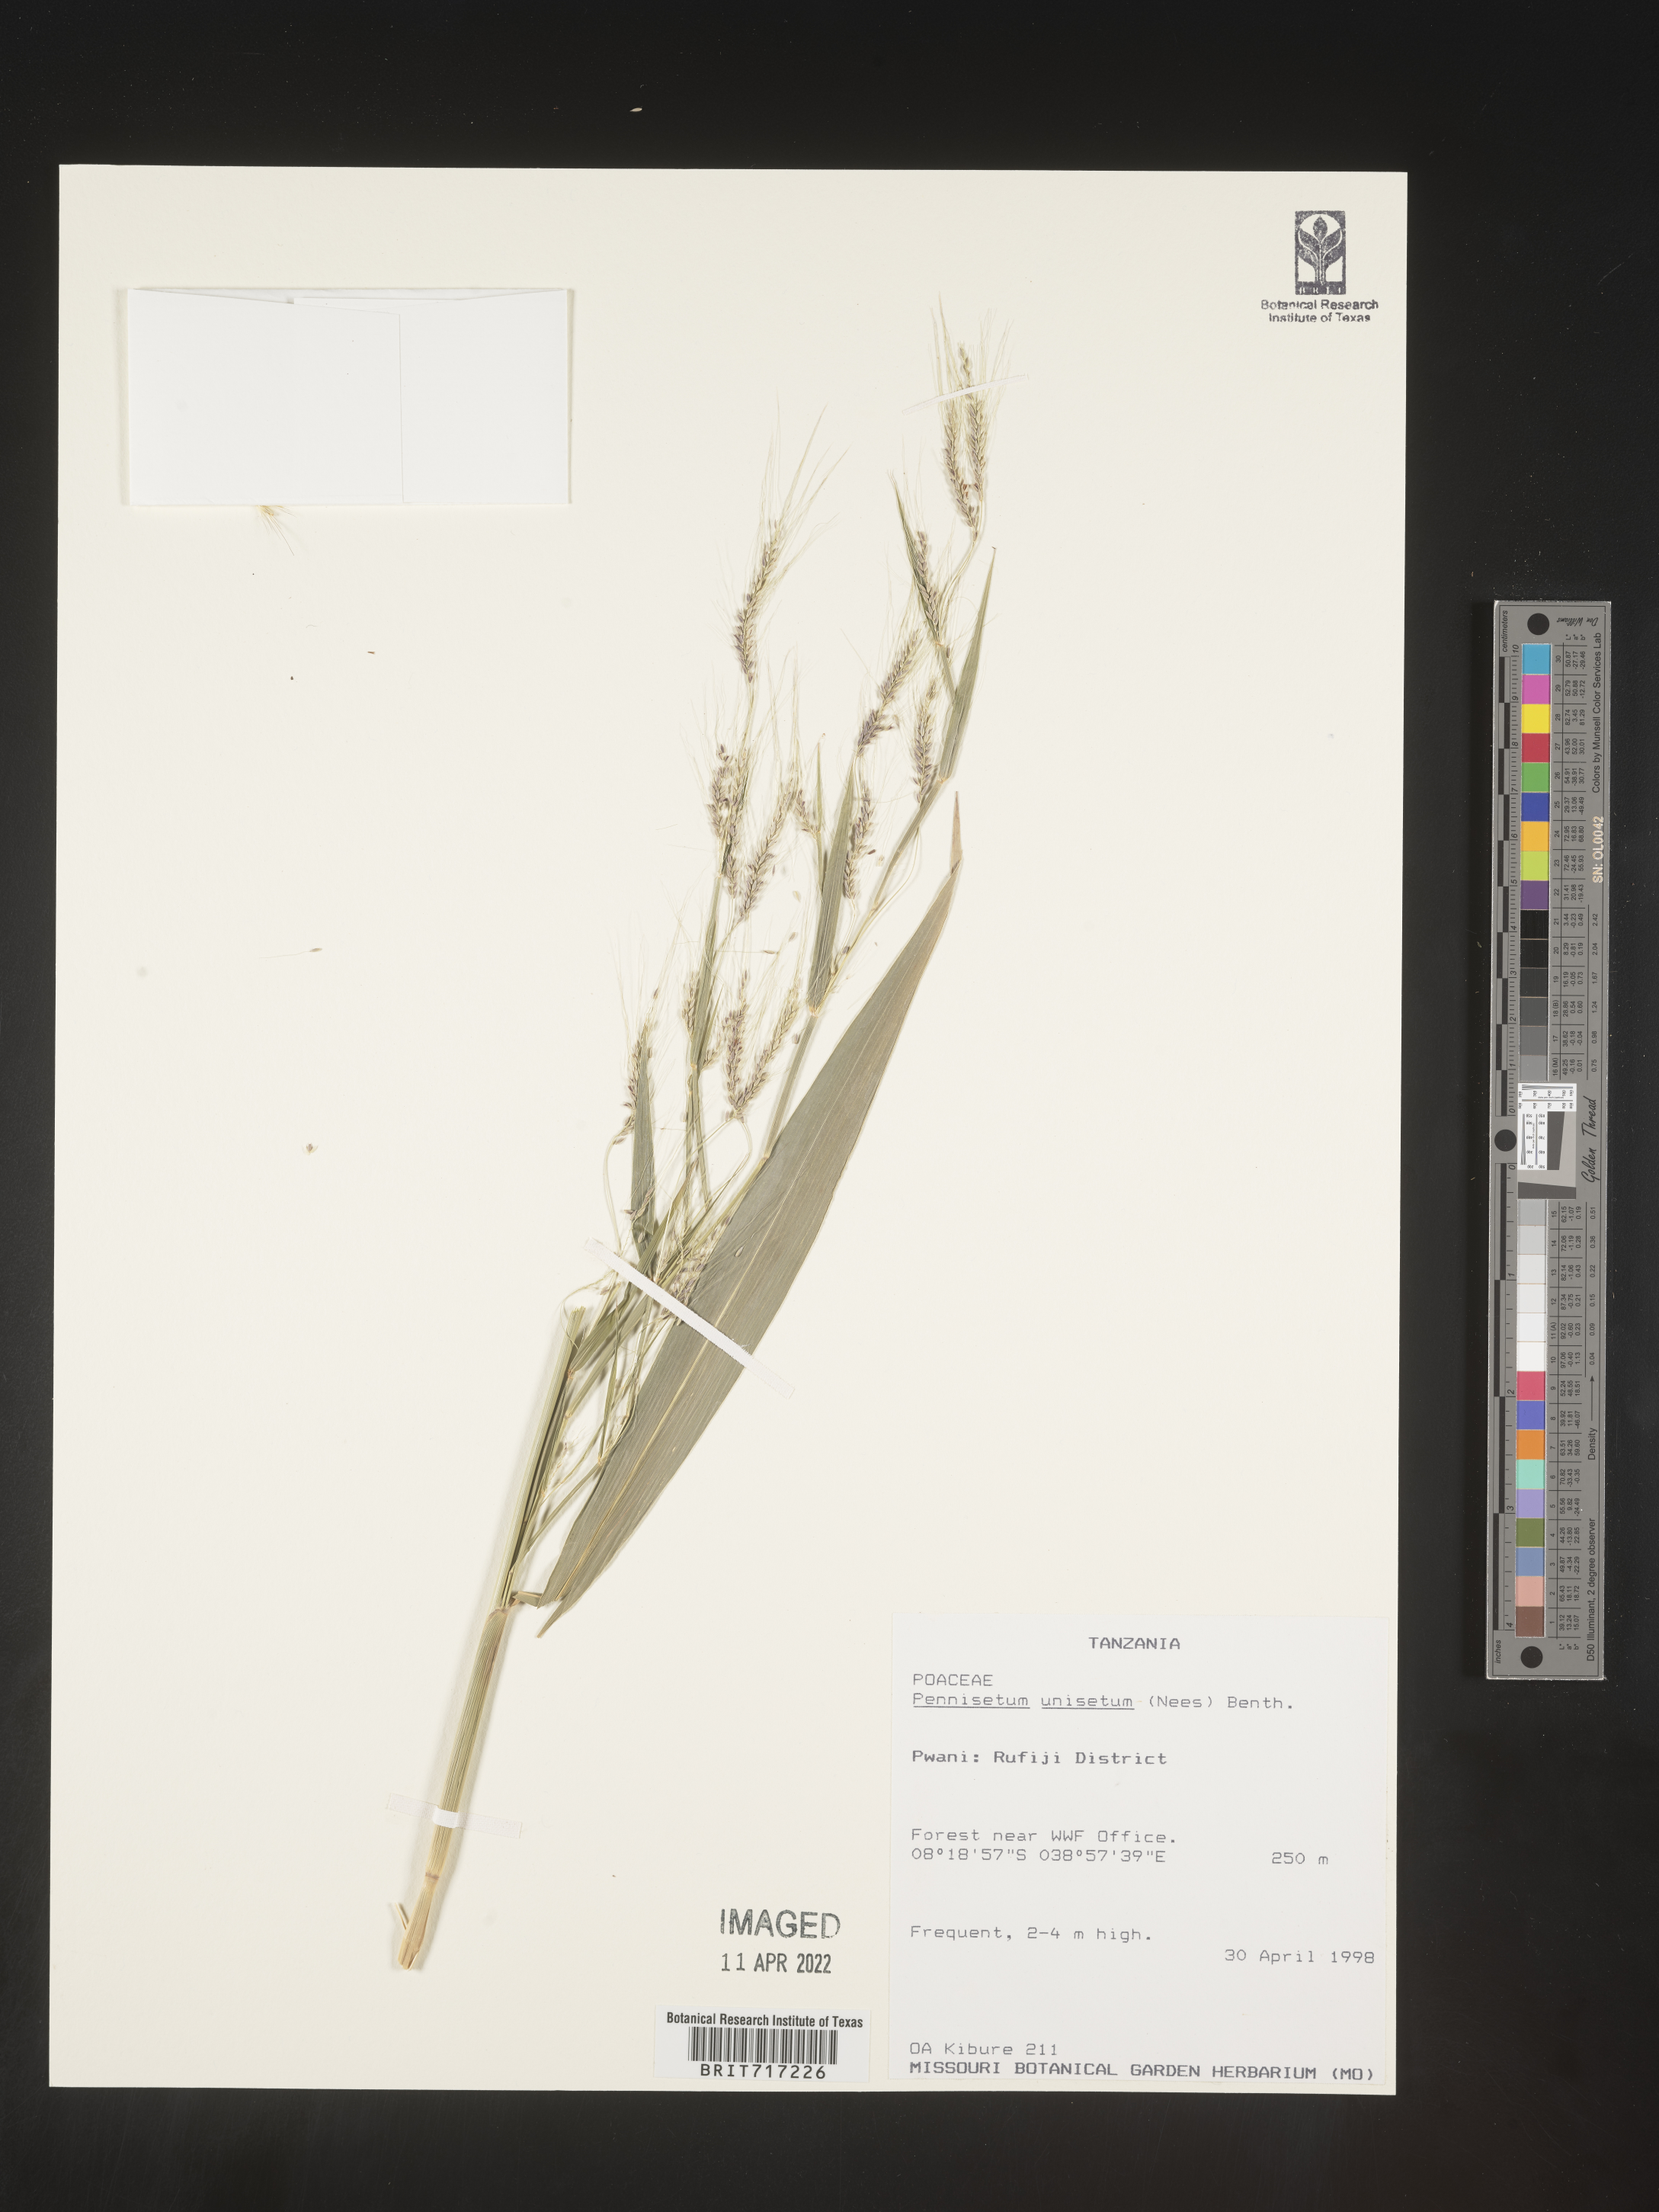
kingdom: Plantae
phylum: Tracheophyta
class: Liliopsida
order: Poales
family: Poaceae
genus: Cenchrus
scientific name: Cenchrus Pennisetum spec
